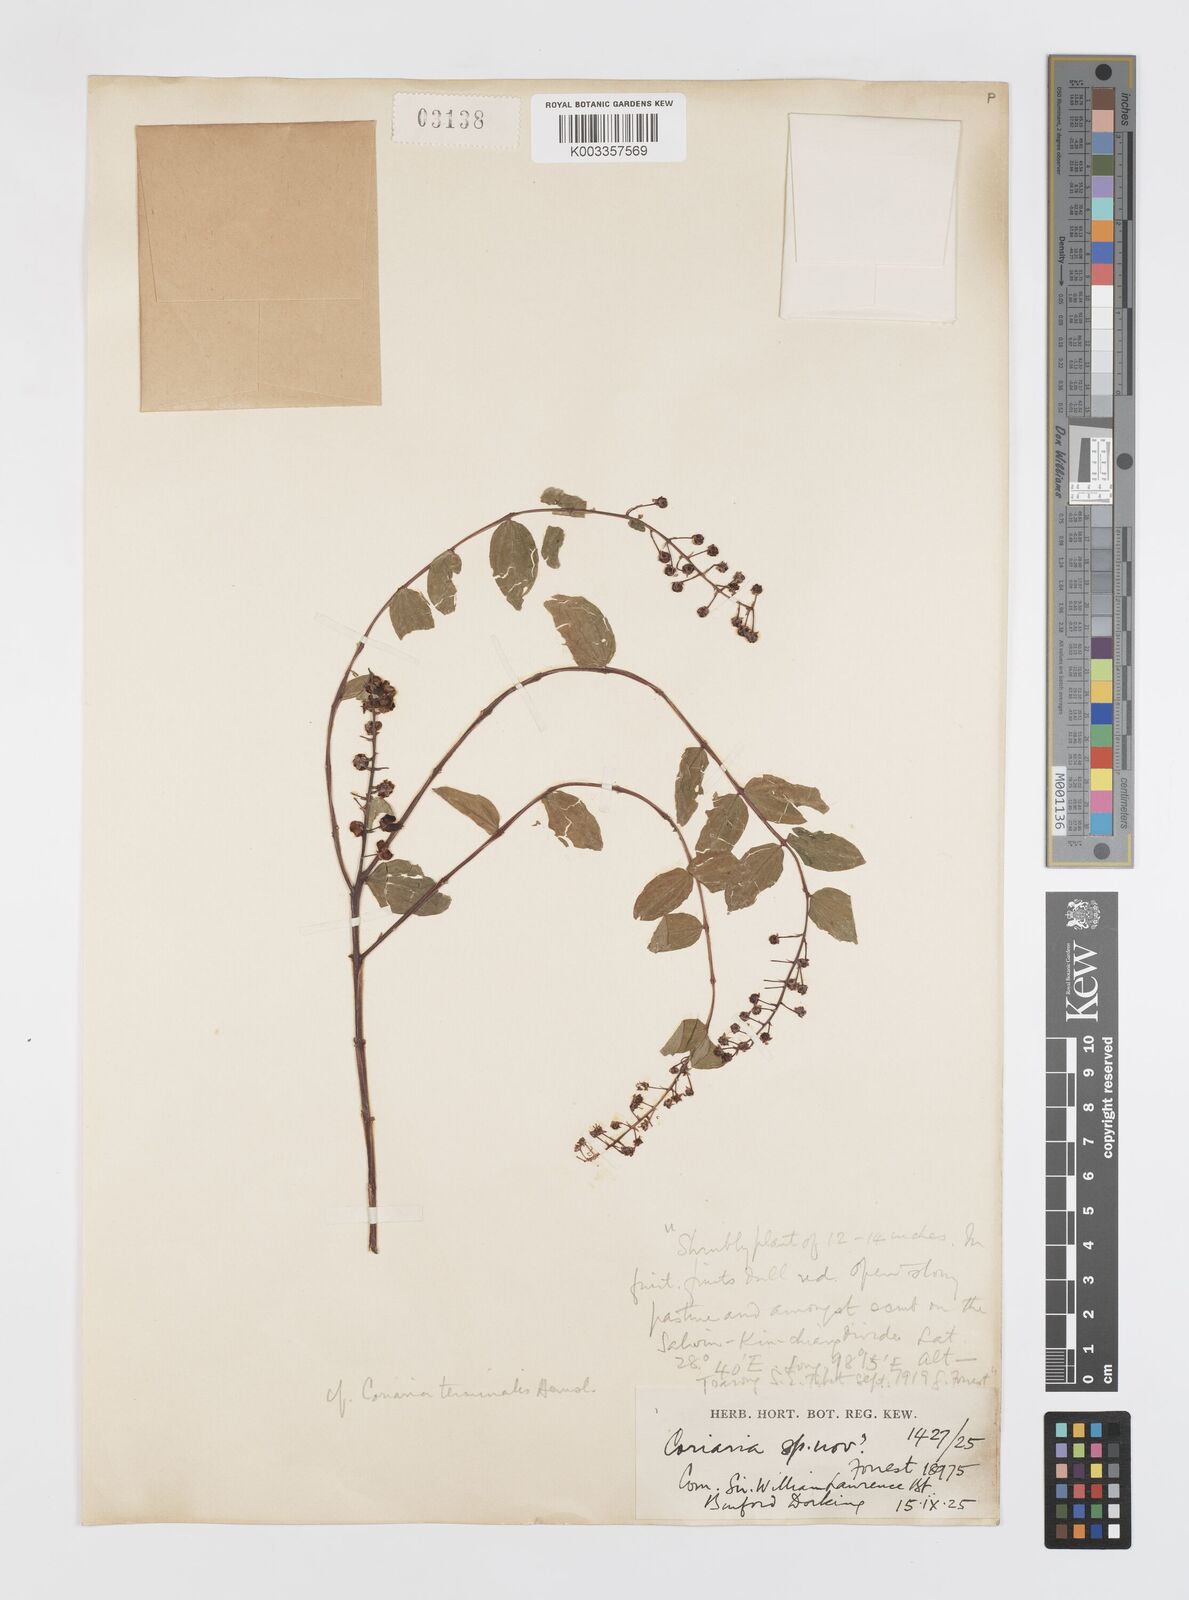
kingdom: Plantae
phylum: Tracheophyta
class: Magnoliopsida
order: Cucurbitales
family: Coriariaceae
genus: Coriaria
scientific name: Coriaria terminalis
